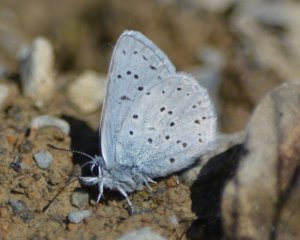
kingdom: Animalia
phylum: Arthropoda
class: Insecta
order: Lepidoptera
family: Lycaenidae
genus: Plebejus
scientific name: Plebejus saepiolus
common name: Greenish Blue
